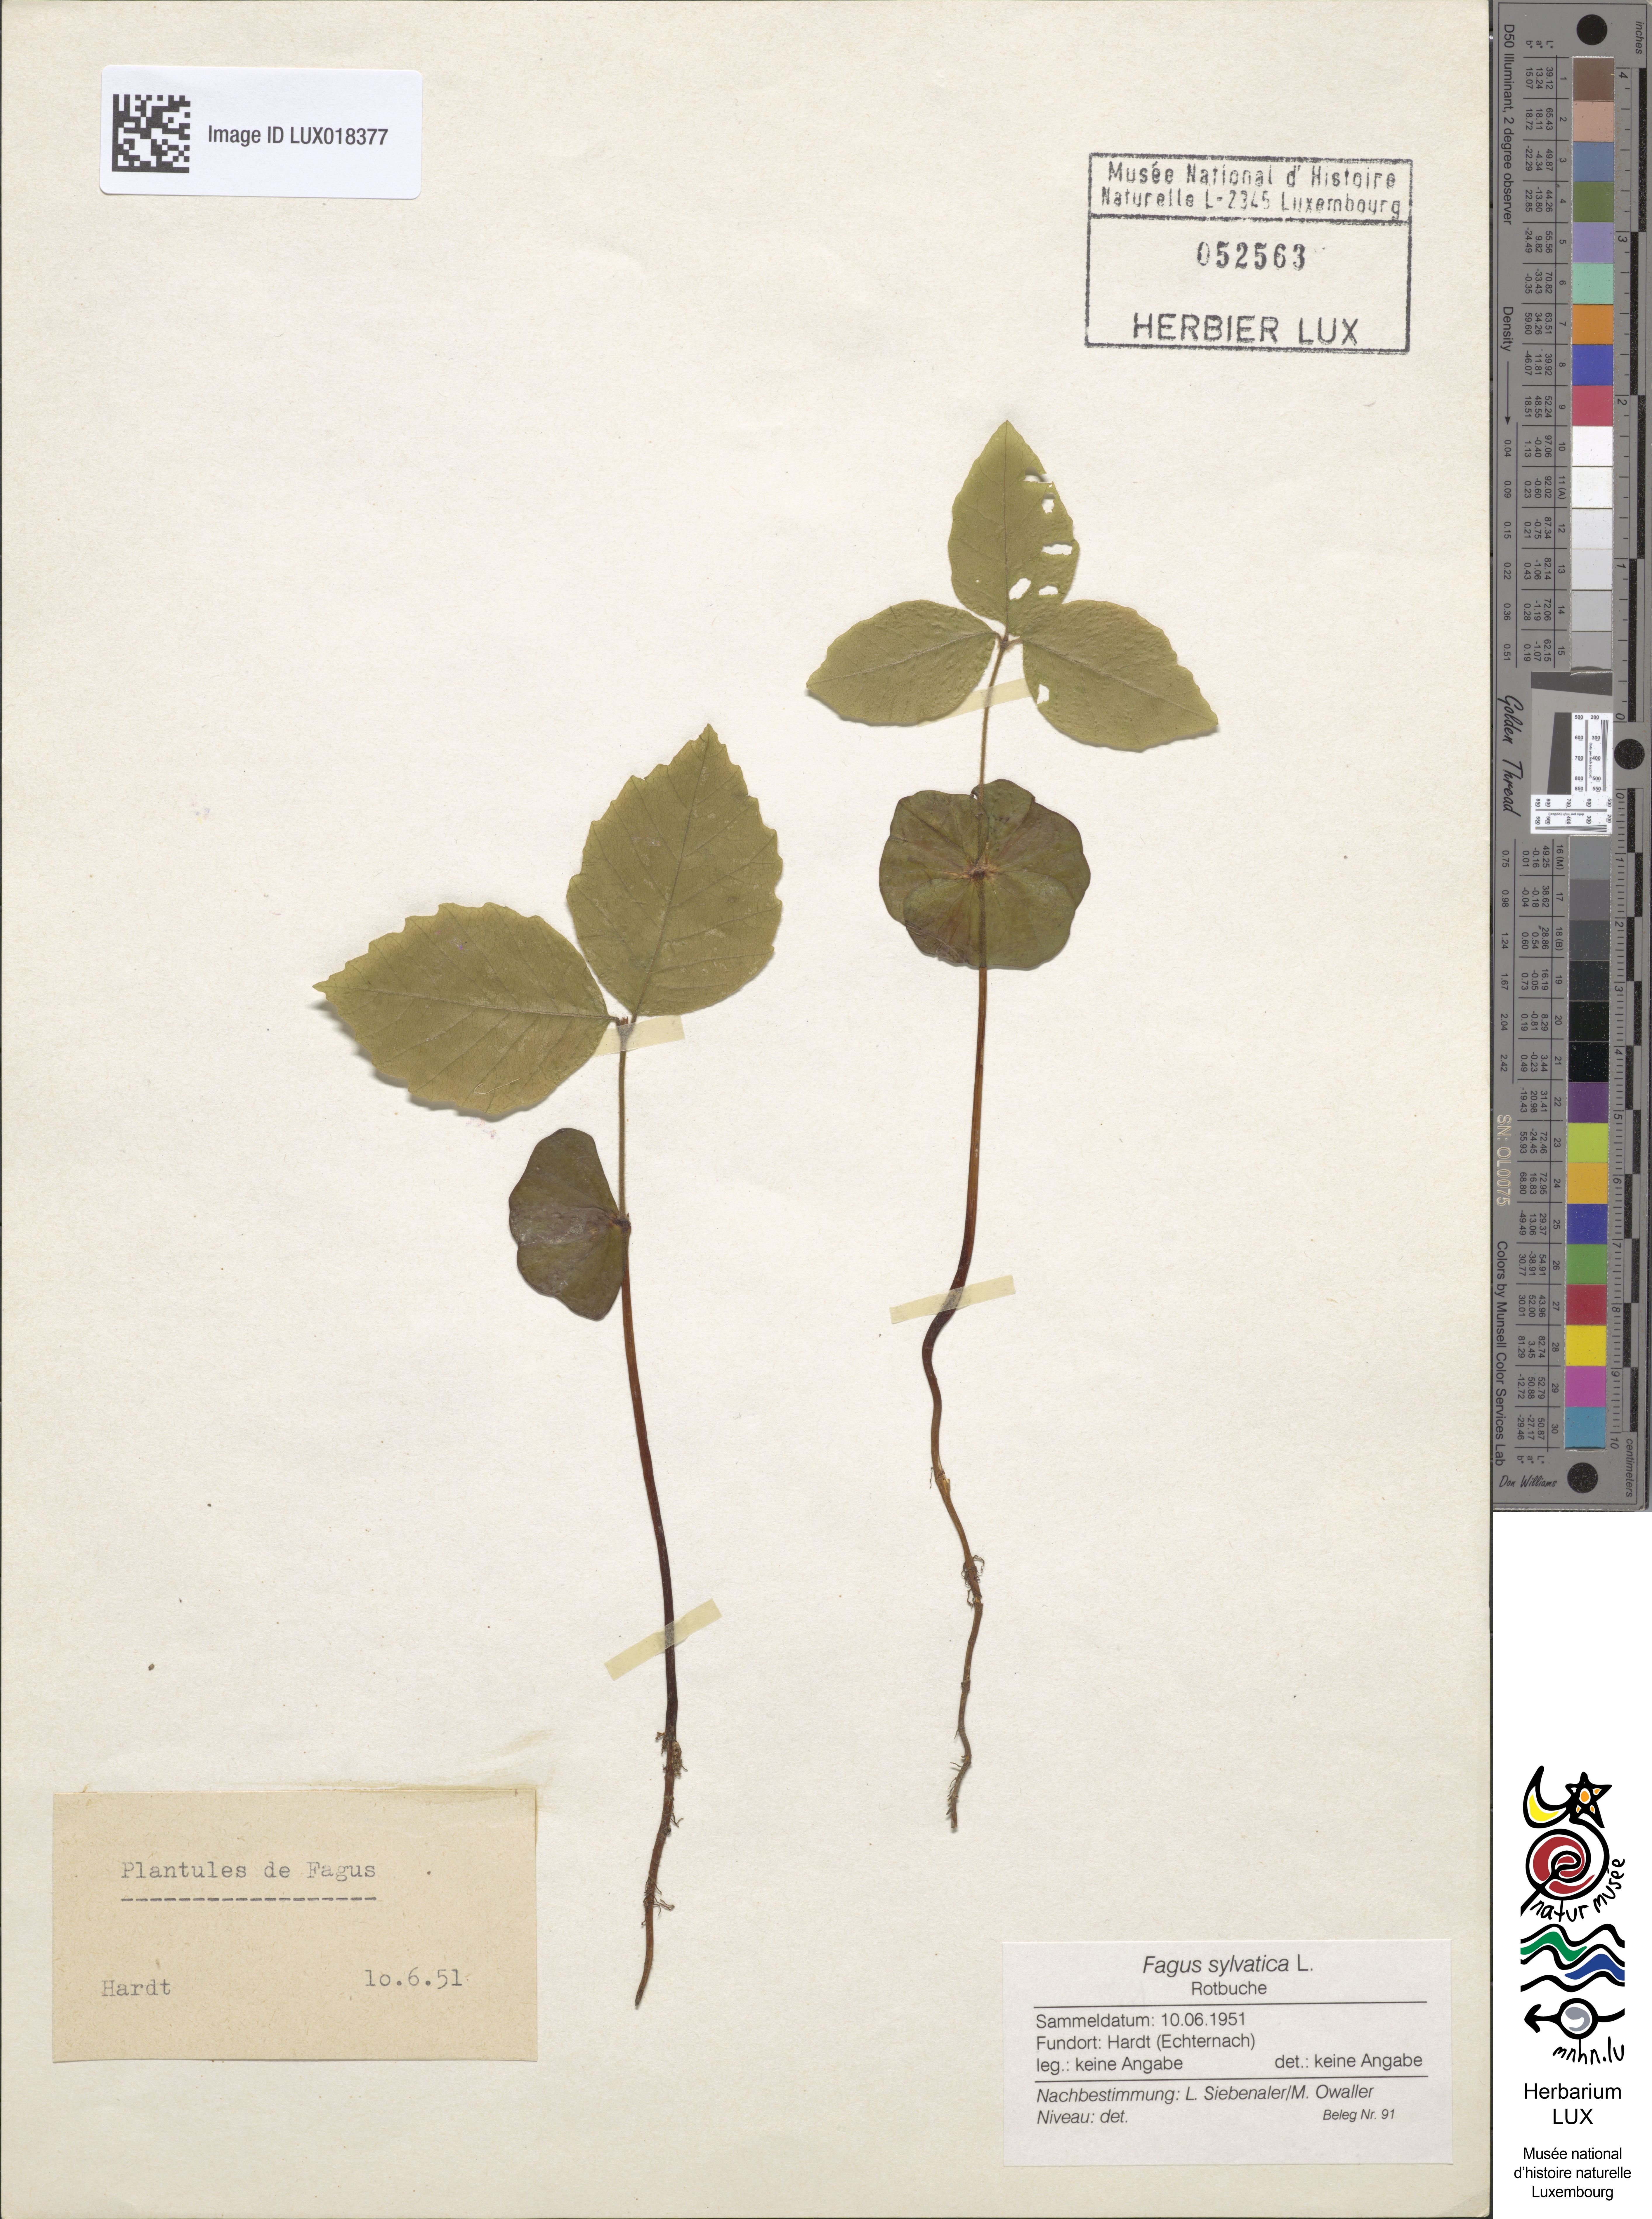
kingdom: Plantae
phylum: Tracheophyta
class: Magnoliopsida
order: Fagales
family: Fagaceae
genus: Fagus
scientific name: Fagus sylvatica
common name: Beech
